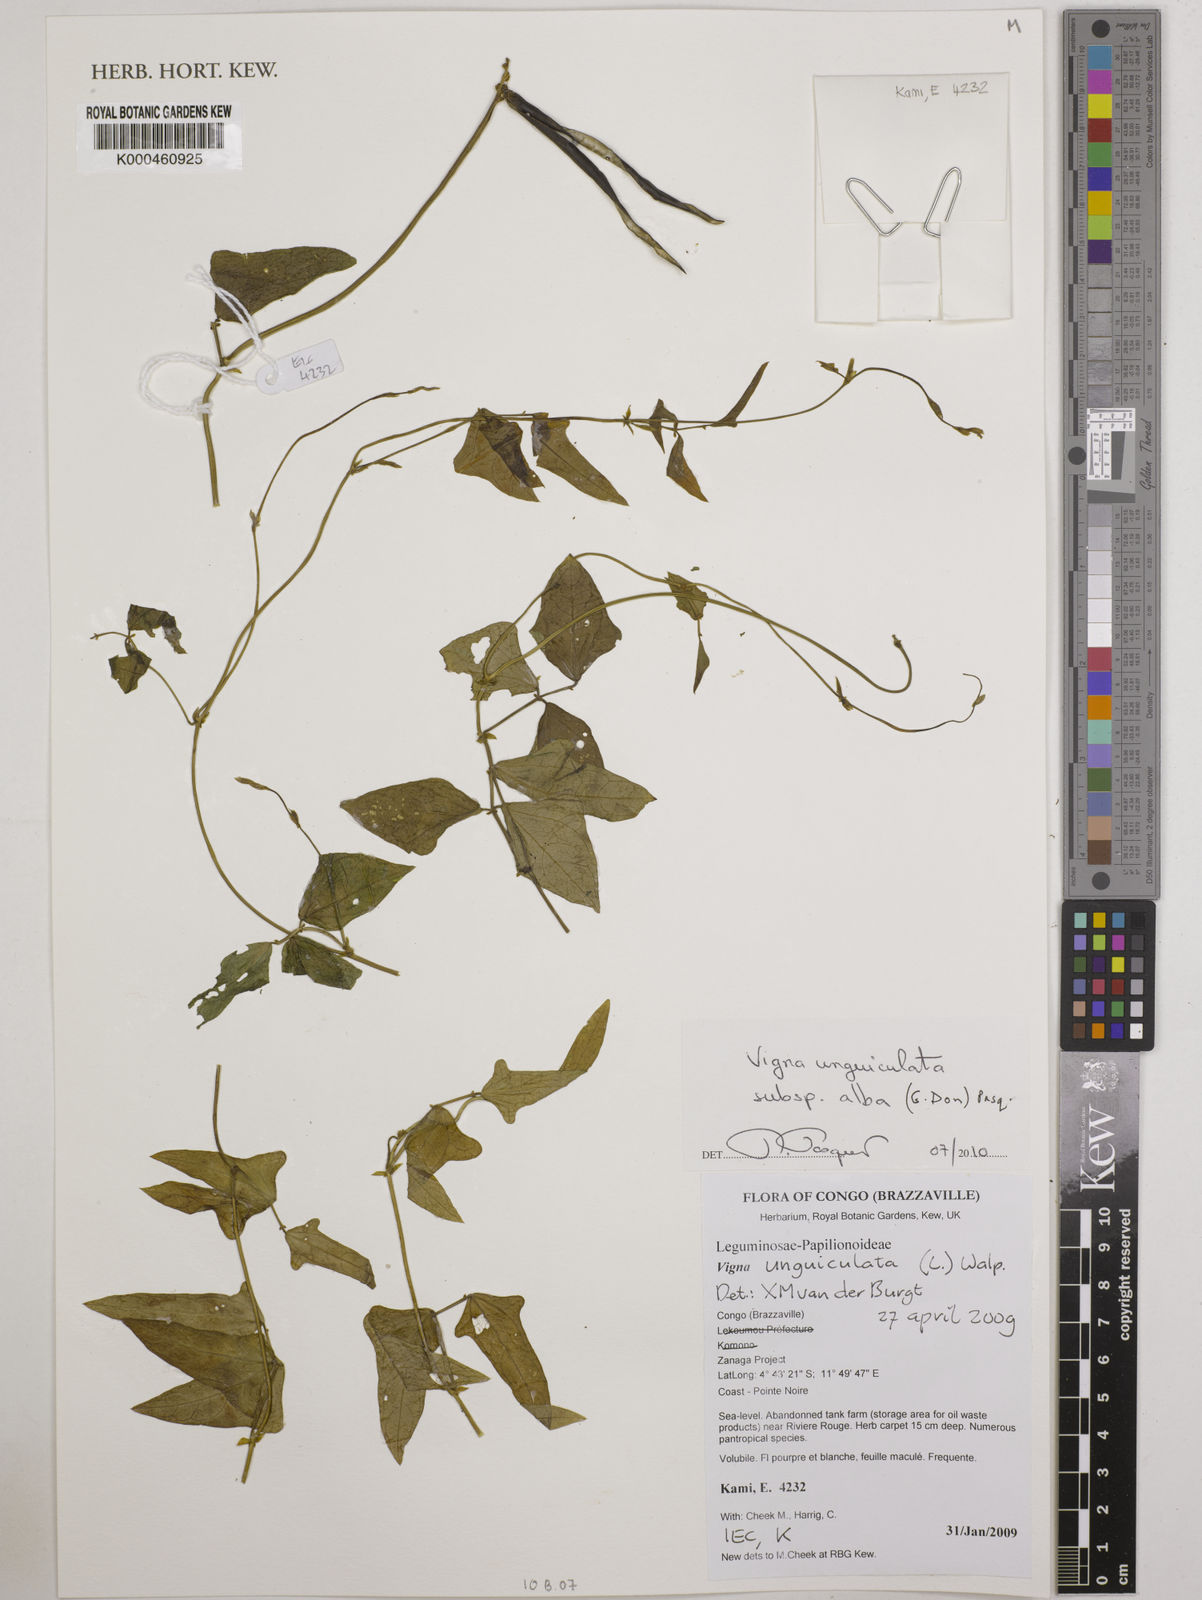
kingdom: Plantae
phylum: Tracheophyta
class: Magnoliopsida
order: Fabales
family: Fabaceae
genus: Vigna
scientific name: Vigna unguiculata
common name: Cowpea
